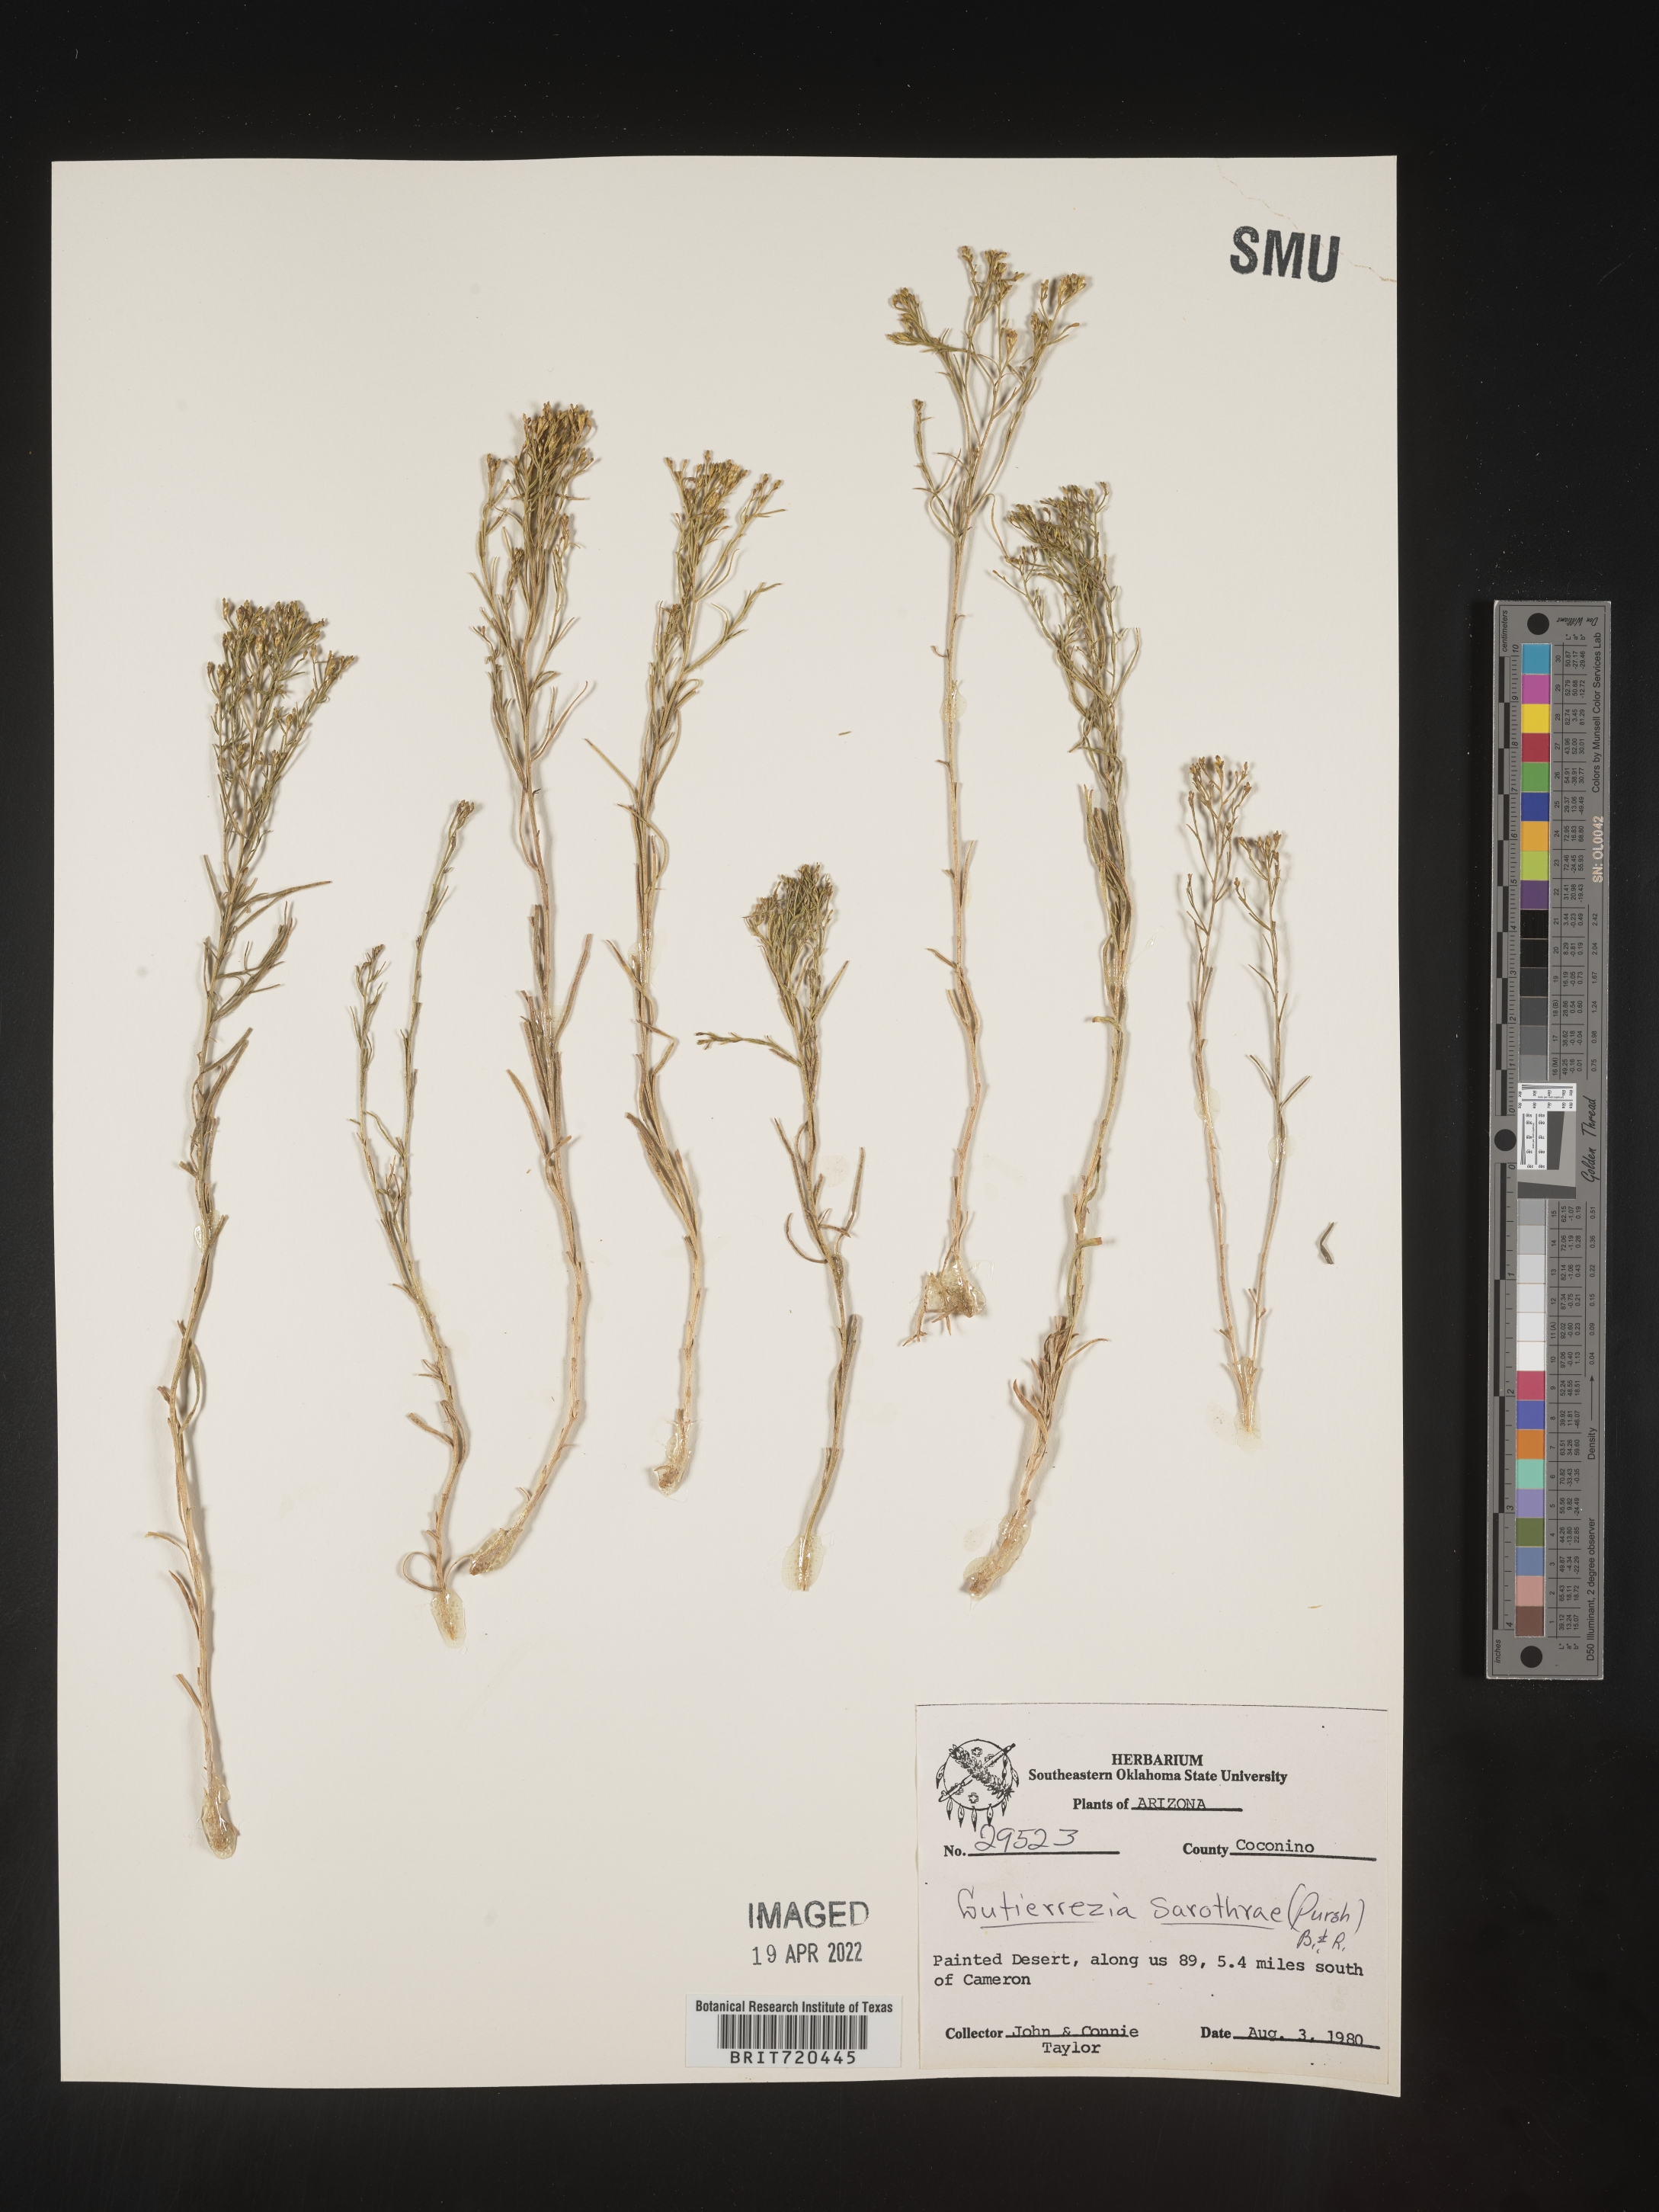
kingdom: Plantae
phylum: Tracheophyta
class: Magnoliopsida
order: Asterales
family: Asteraceae
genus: Gutierrezia
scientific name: Gutierrezia sarothrae
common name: Broom snakeweed
